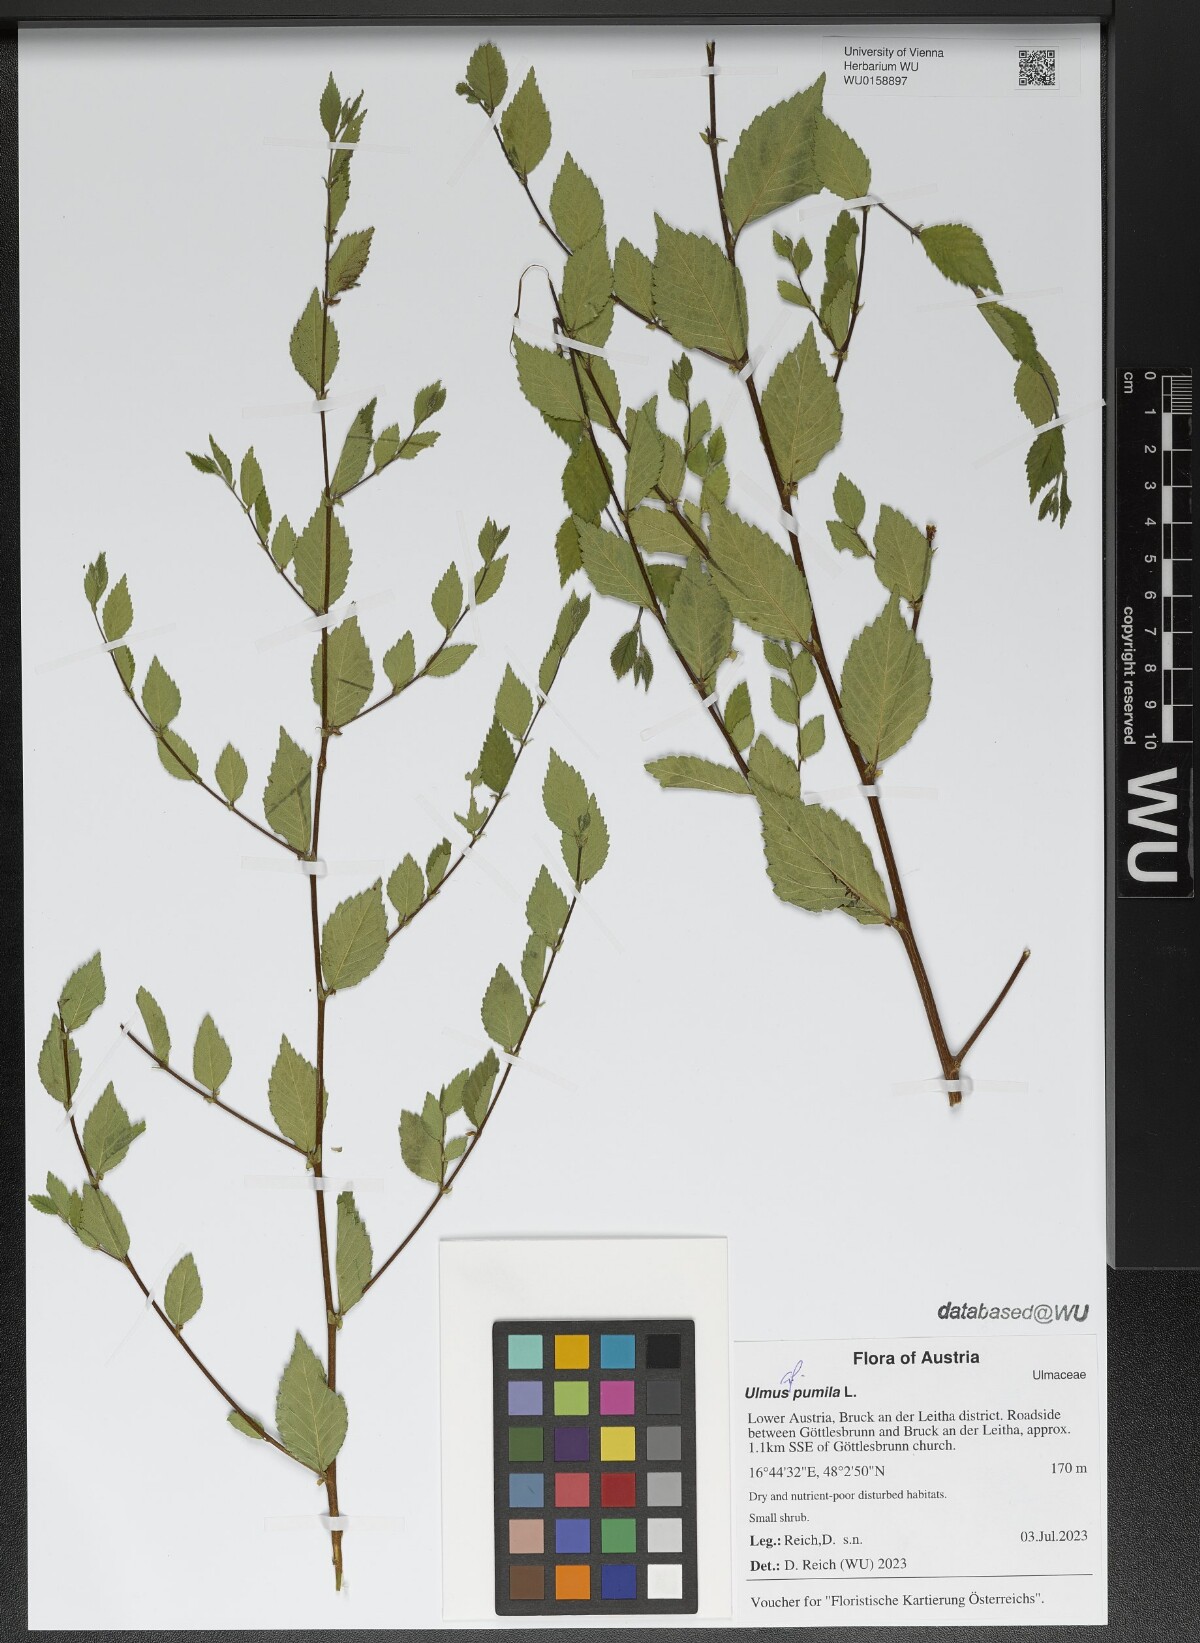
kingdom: Plantae
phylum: Tracheophyta
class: Magnoliopsida
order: Rosales
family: Ulmaceae
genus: Ulmus
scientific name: Ulmus pumila
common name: Siberian elm
